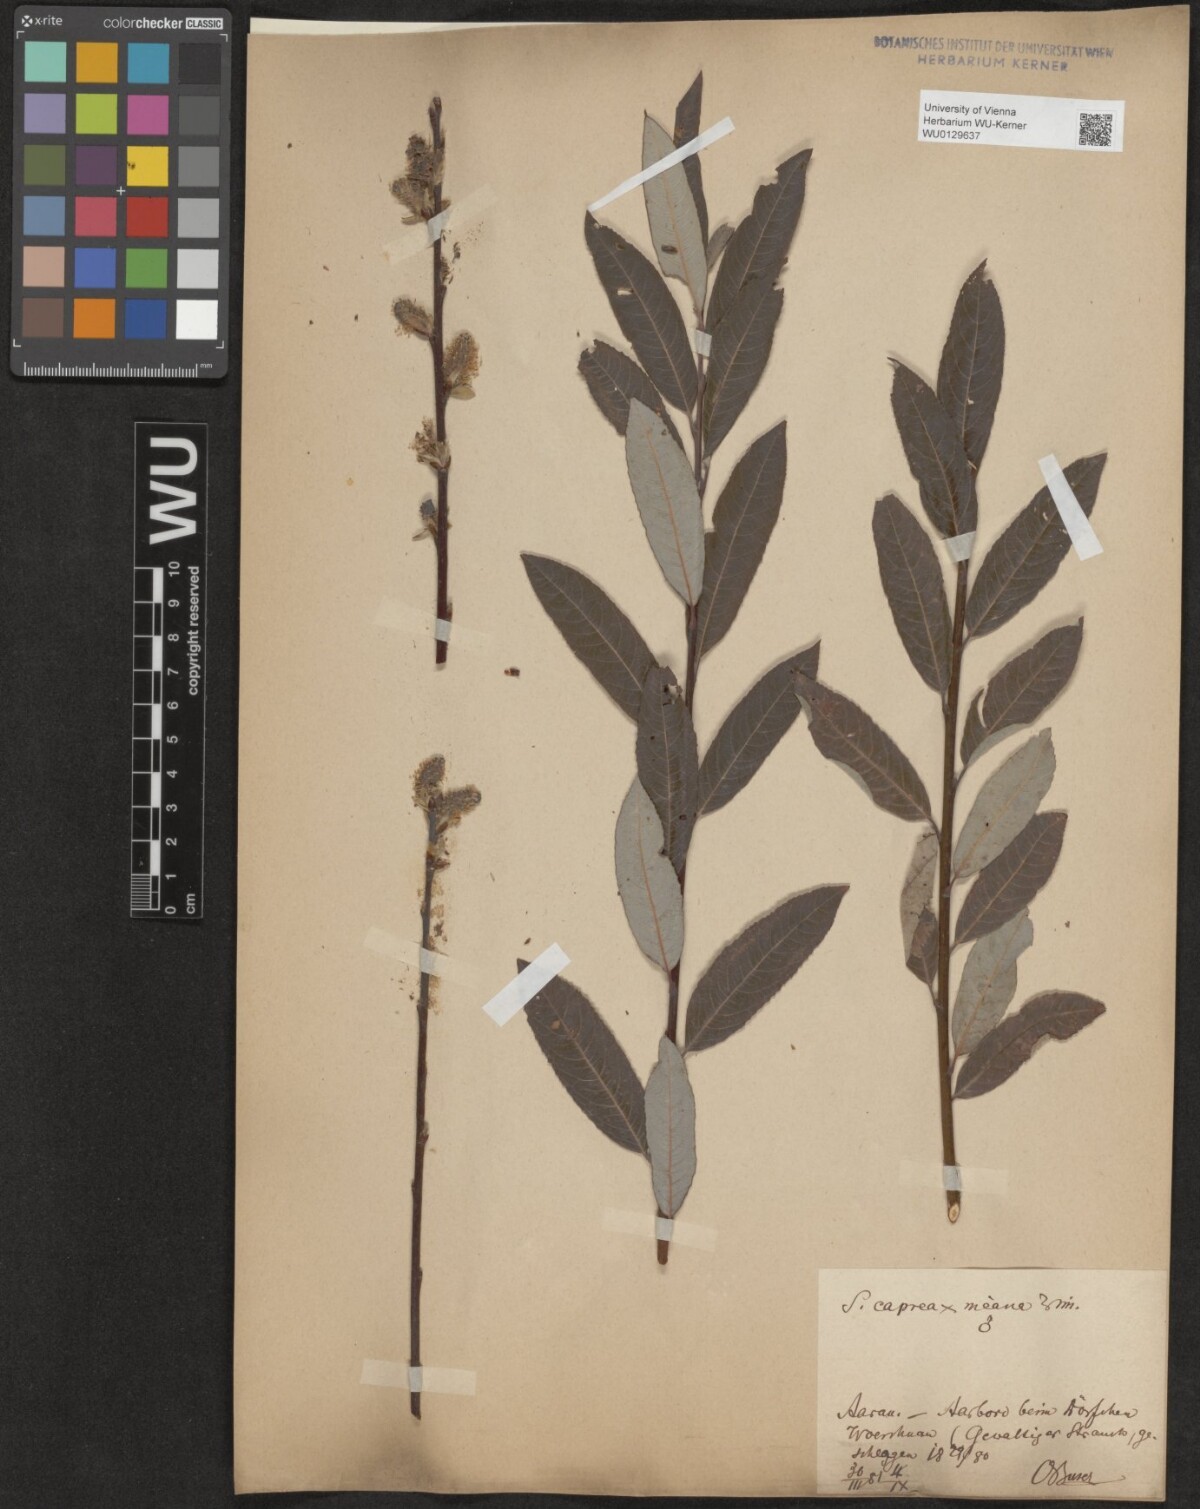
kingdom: Plantae
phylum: Tracheophyta
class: Magnoliopsida
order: Malpighiales
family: Salicaceae
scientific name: Salicaceae
